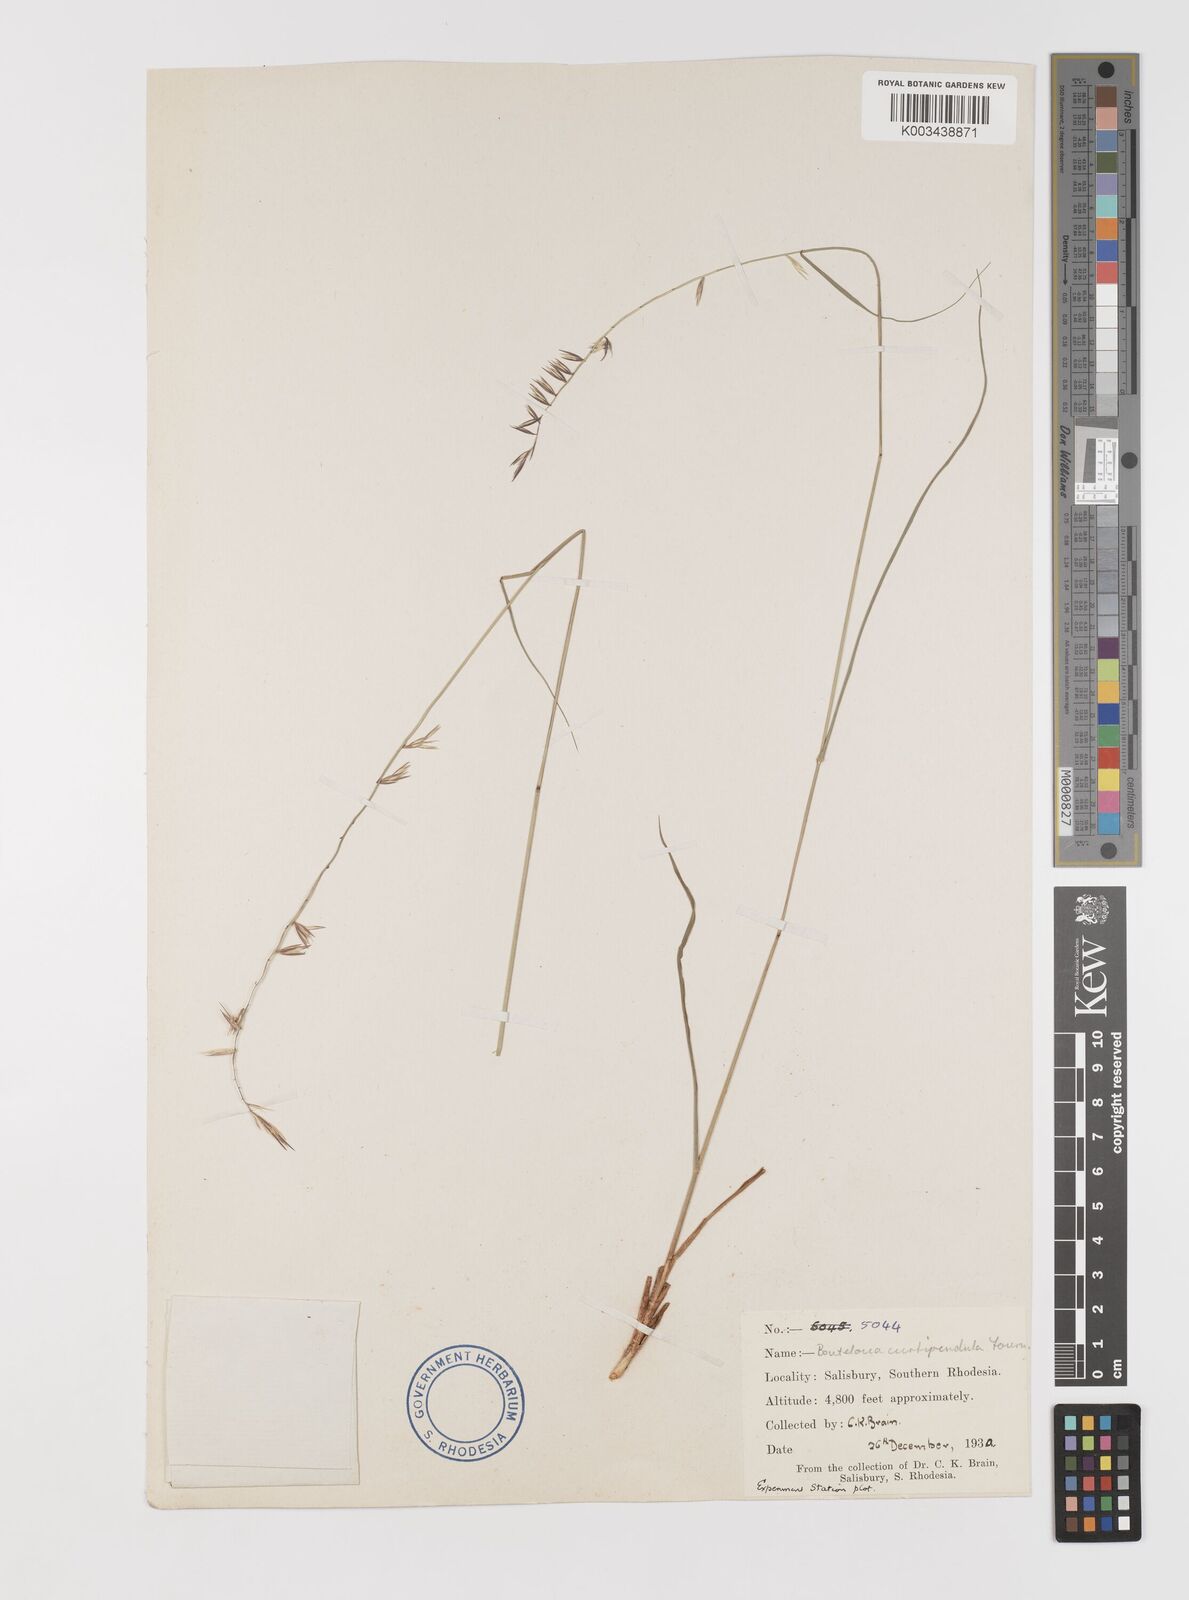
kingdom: Plantae
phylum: Tracheophyta
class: Liliopsida
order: Poales
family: Poaceae
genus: Bouteloua
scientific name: Bouteloua curtipendula
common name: Side-oats grama
